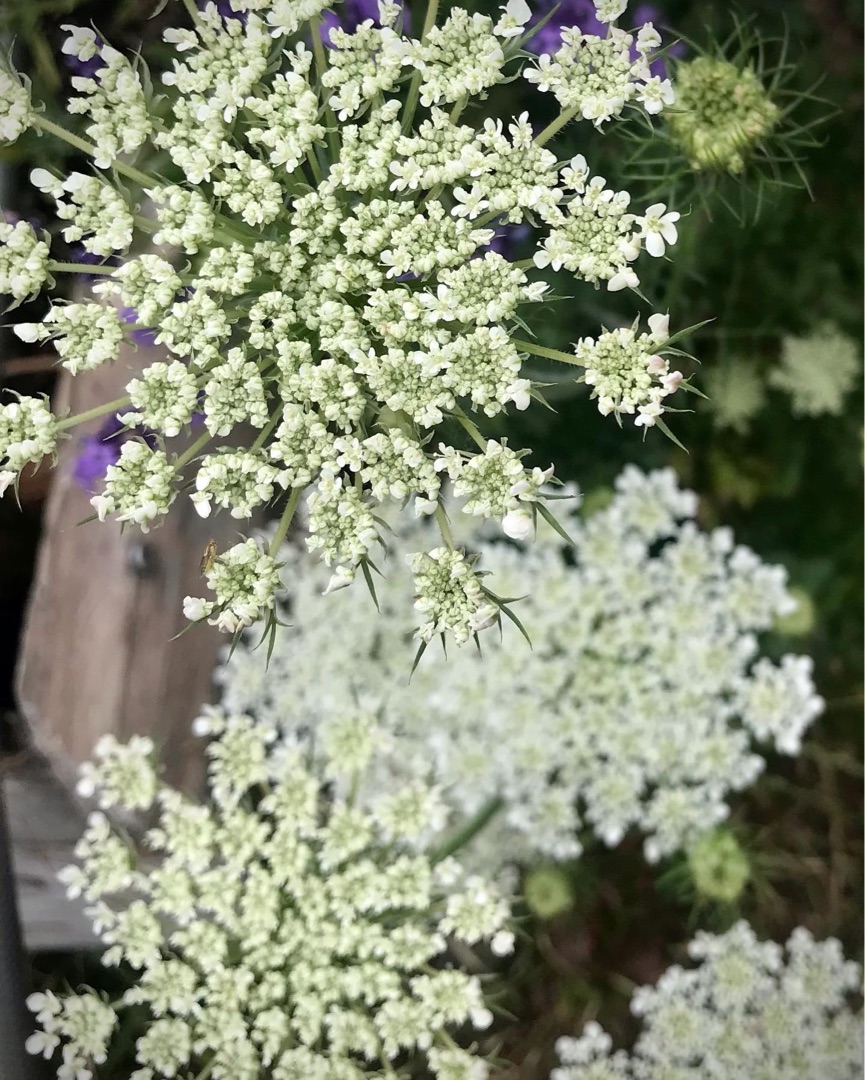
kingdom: Plantae
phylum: Tracheophyta
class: Magnoliopsida
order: Apiales
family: Apiaceae
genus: Daucus
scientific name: Daucus carota
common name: Vild gulerod
